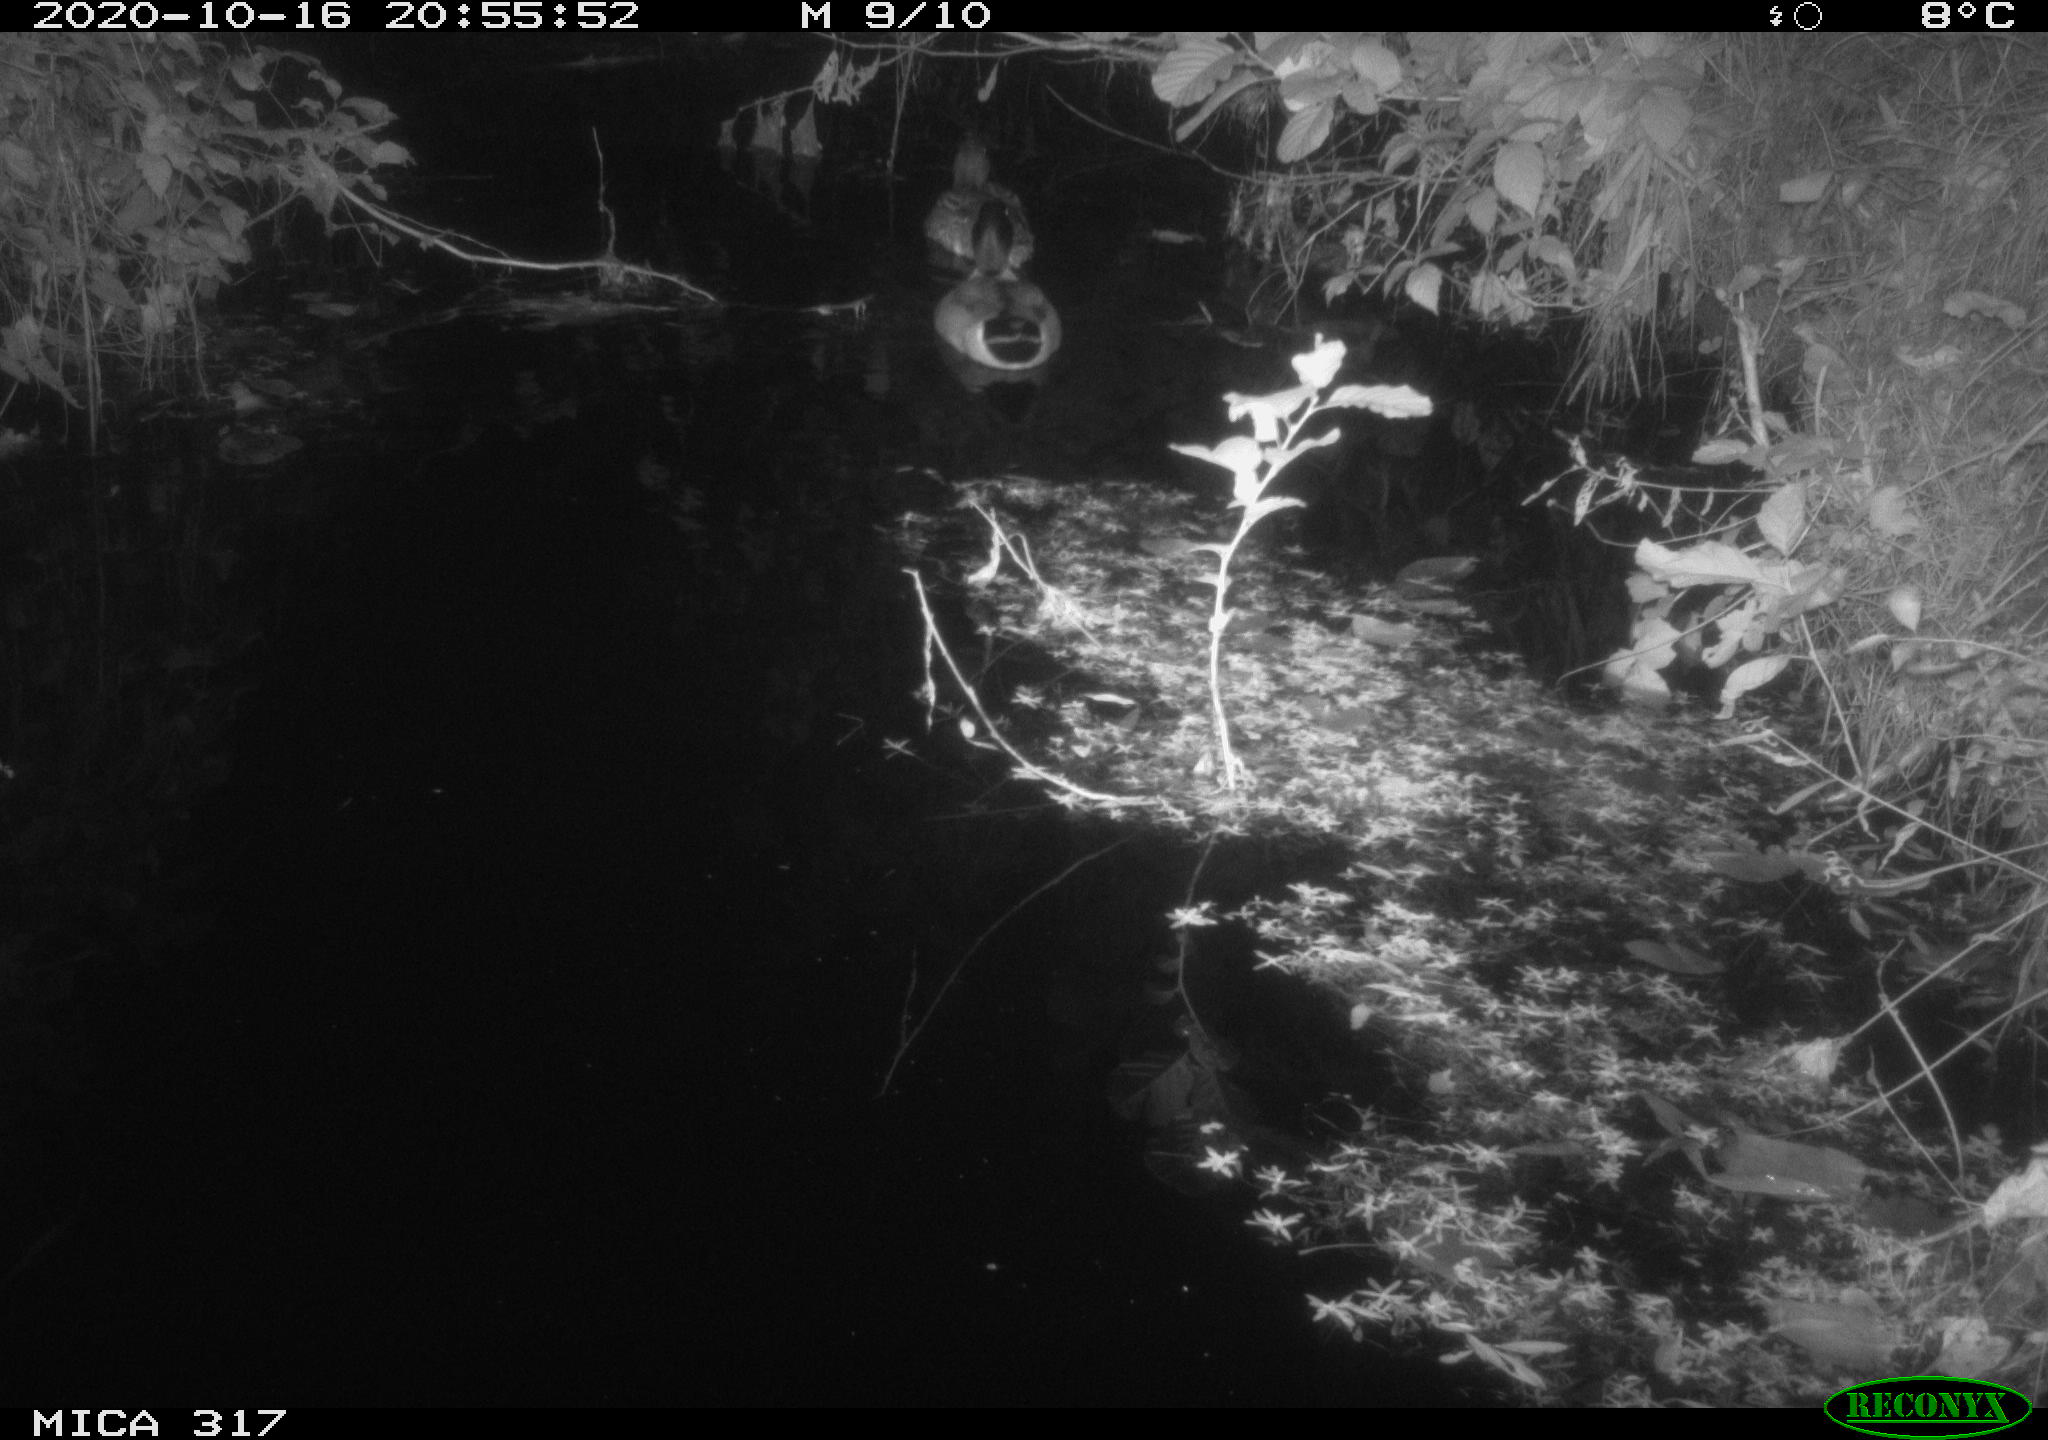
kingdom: Animalia
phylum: Chordata
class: Aves
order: Anseriformes
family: Anatidae
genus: Anas
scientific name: Anas platyrhynchos
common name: Mallard
